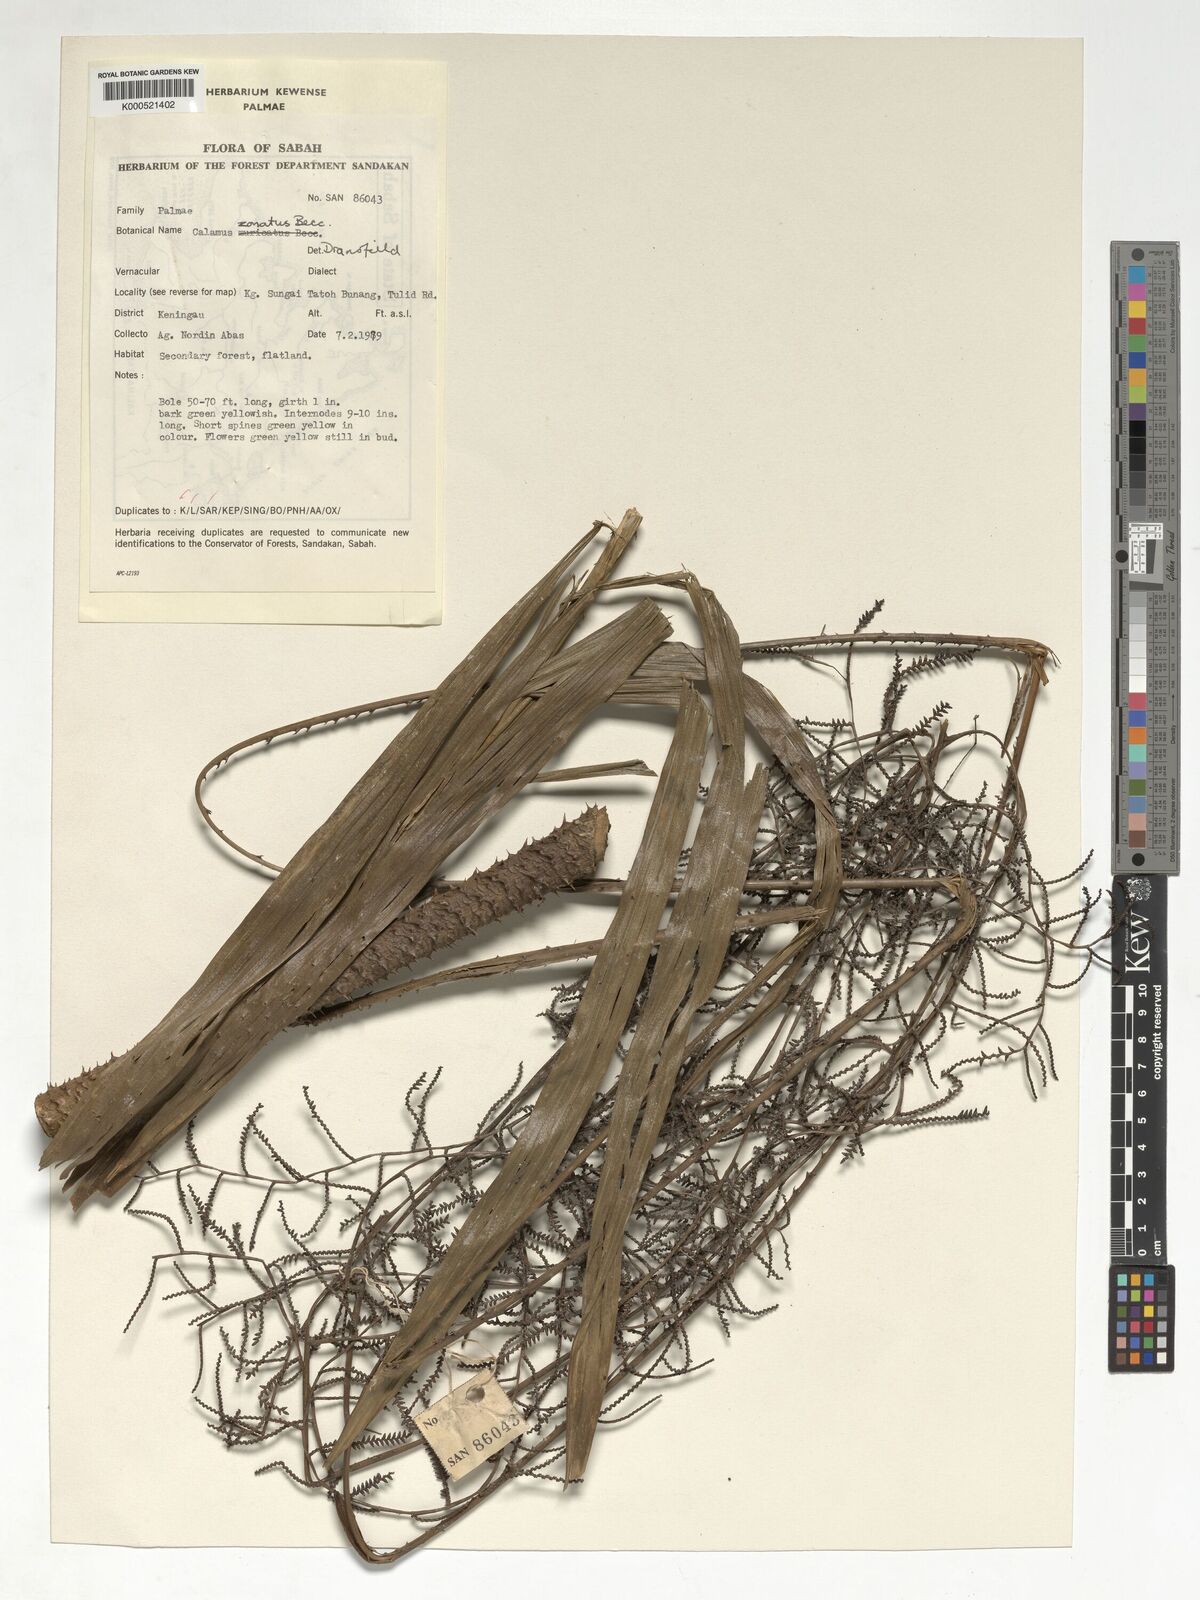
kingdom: Plantae
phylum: Tracheophyta
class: Liliopsida
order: Arecales
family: Arecaceae
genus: Calamus
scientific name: Calamus zonatus
